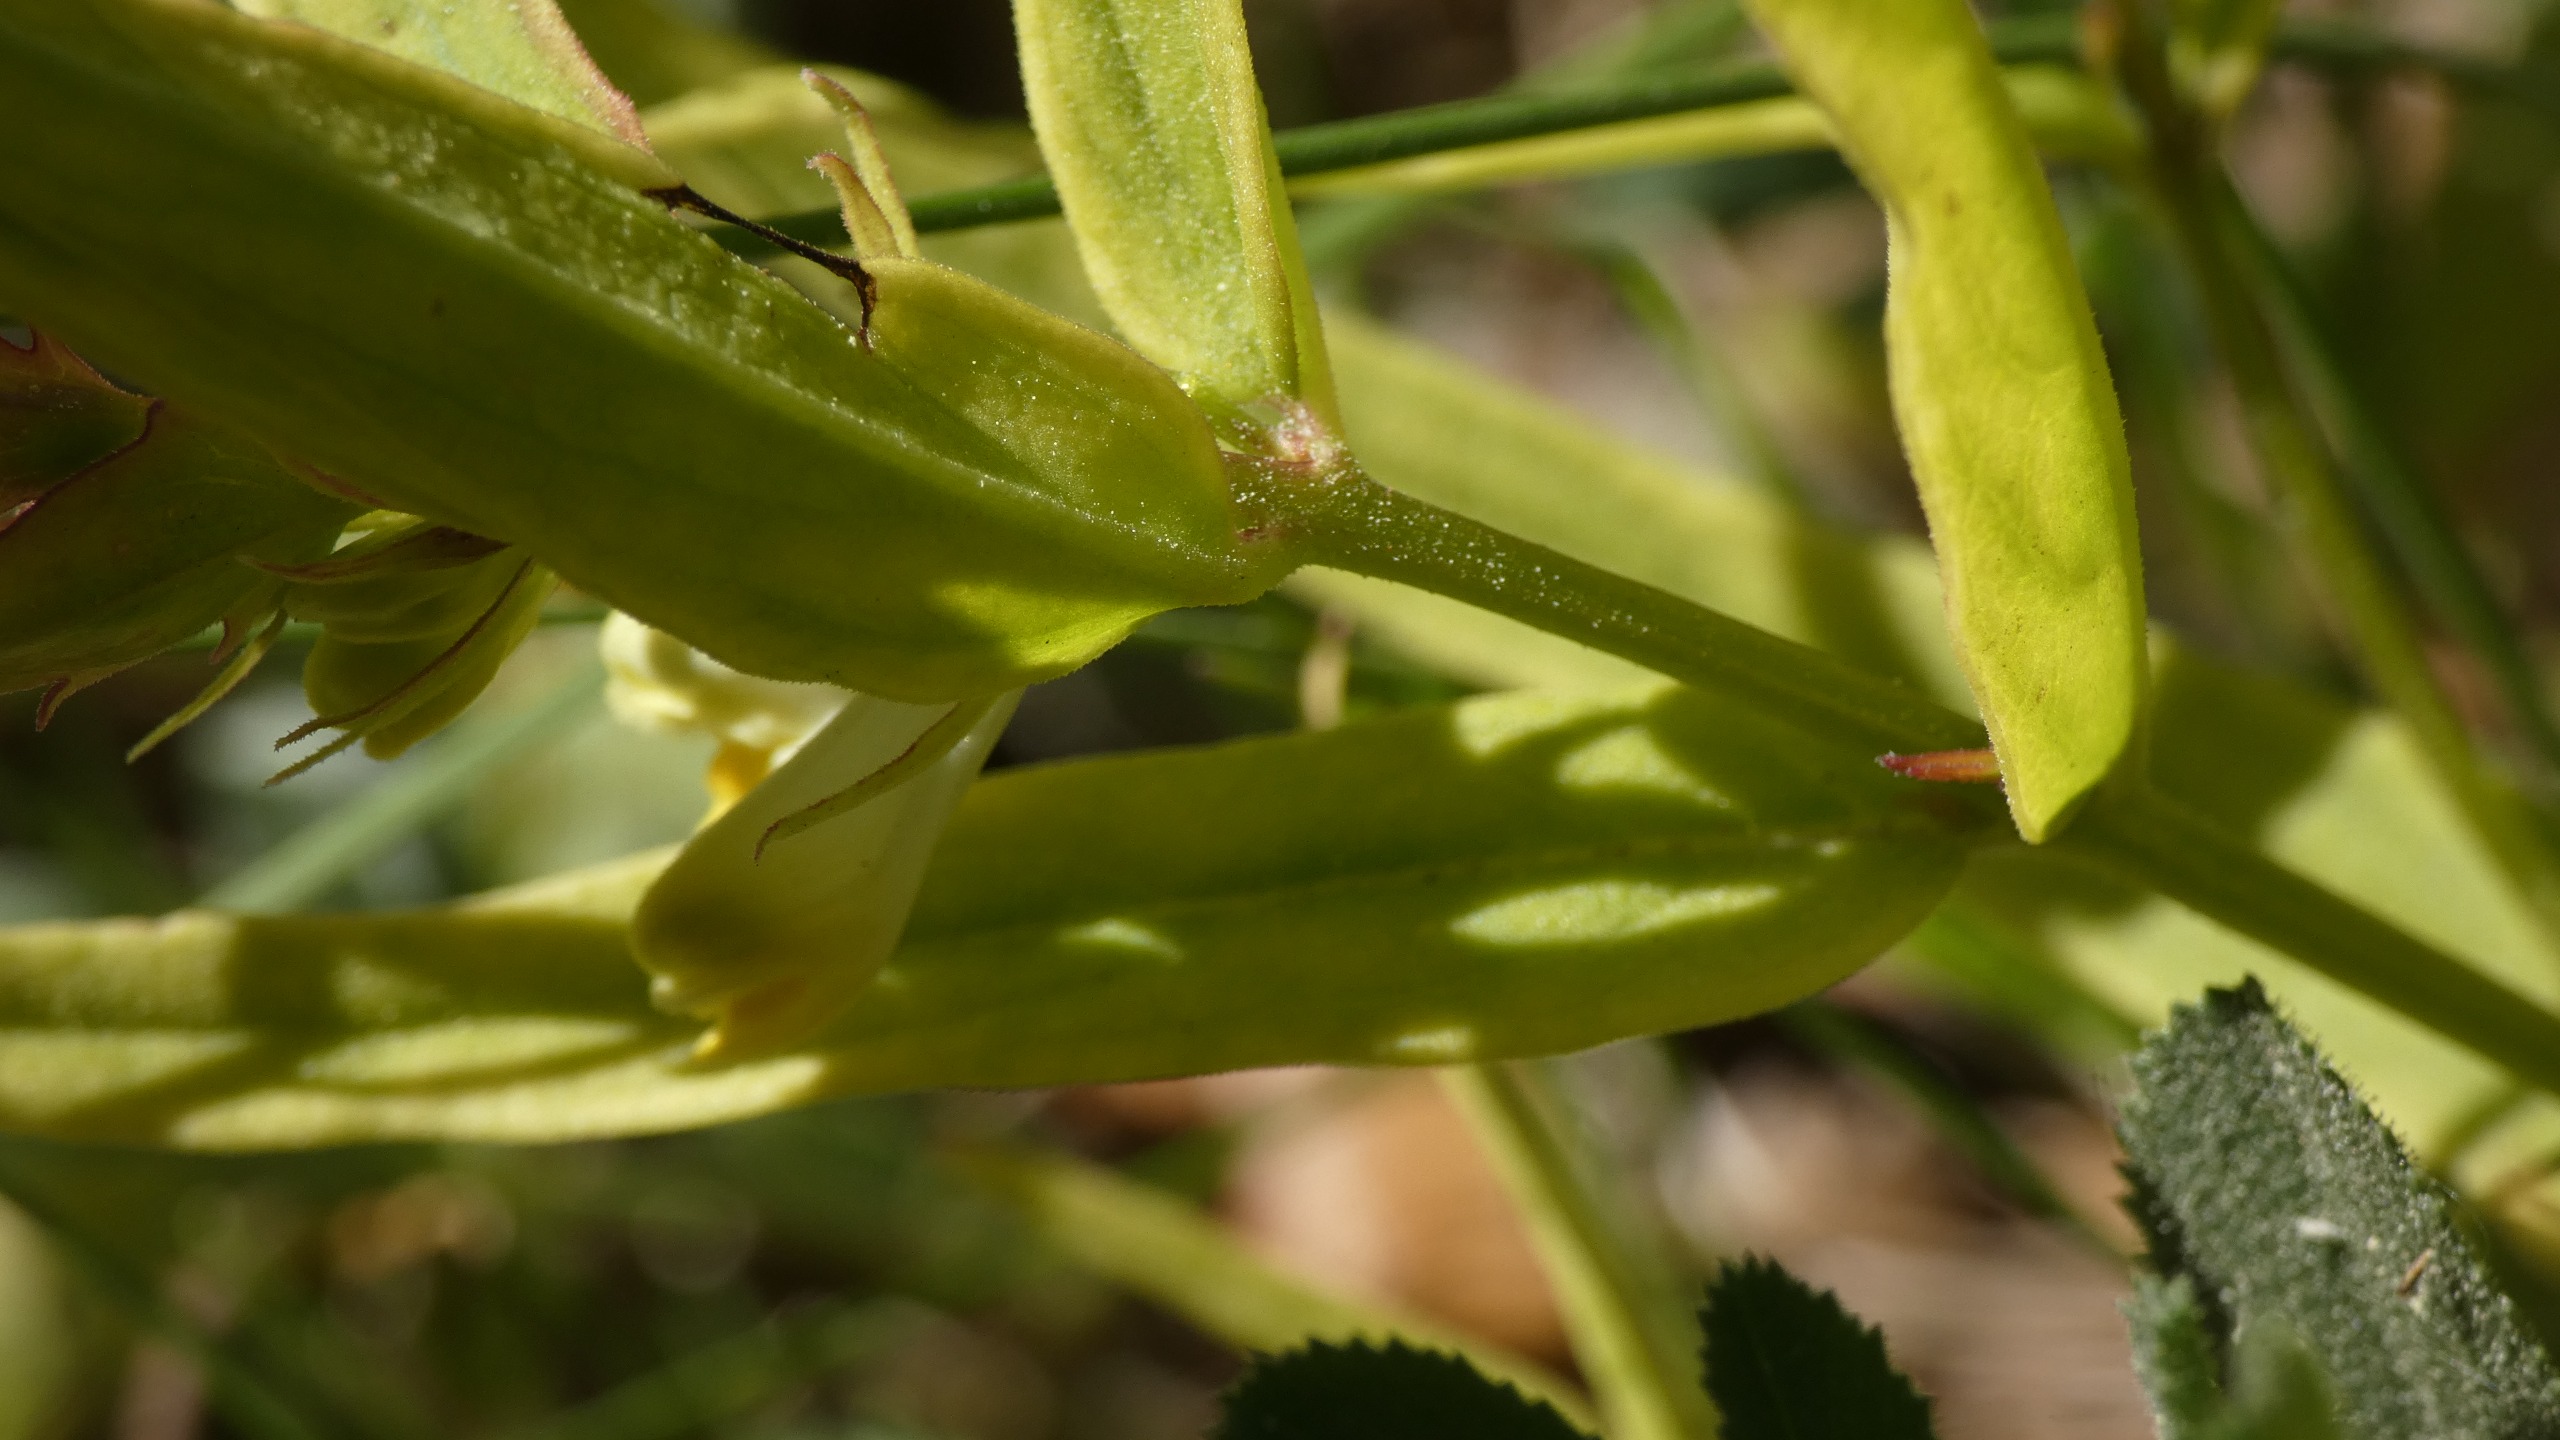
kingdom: Plantae
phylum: Tracheophyta
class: Magnoliopsida
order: Lamiales
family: Orobanchaceae
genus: Melampyrum
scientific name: Melampyrum pratense
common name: Almindelig kohvede
